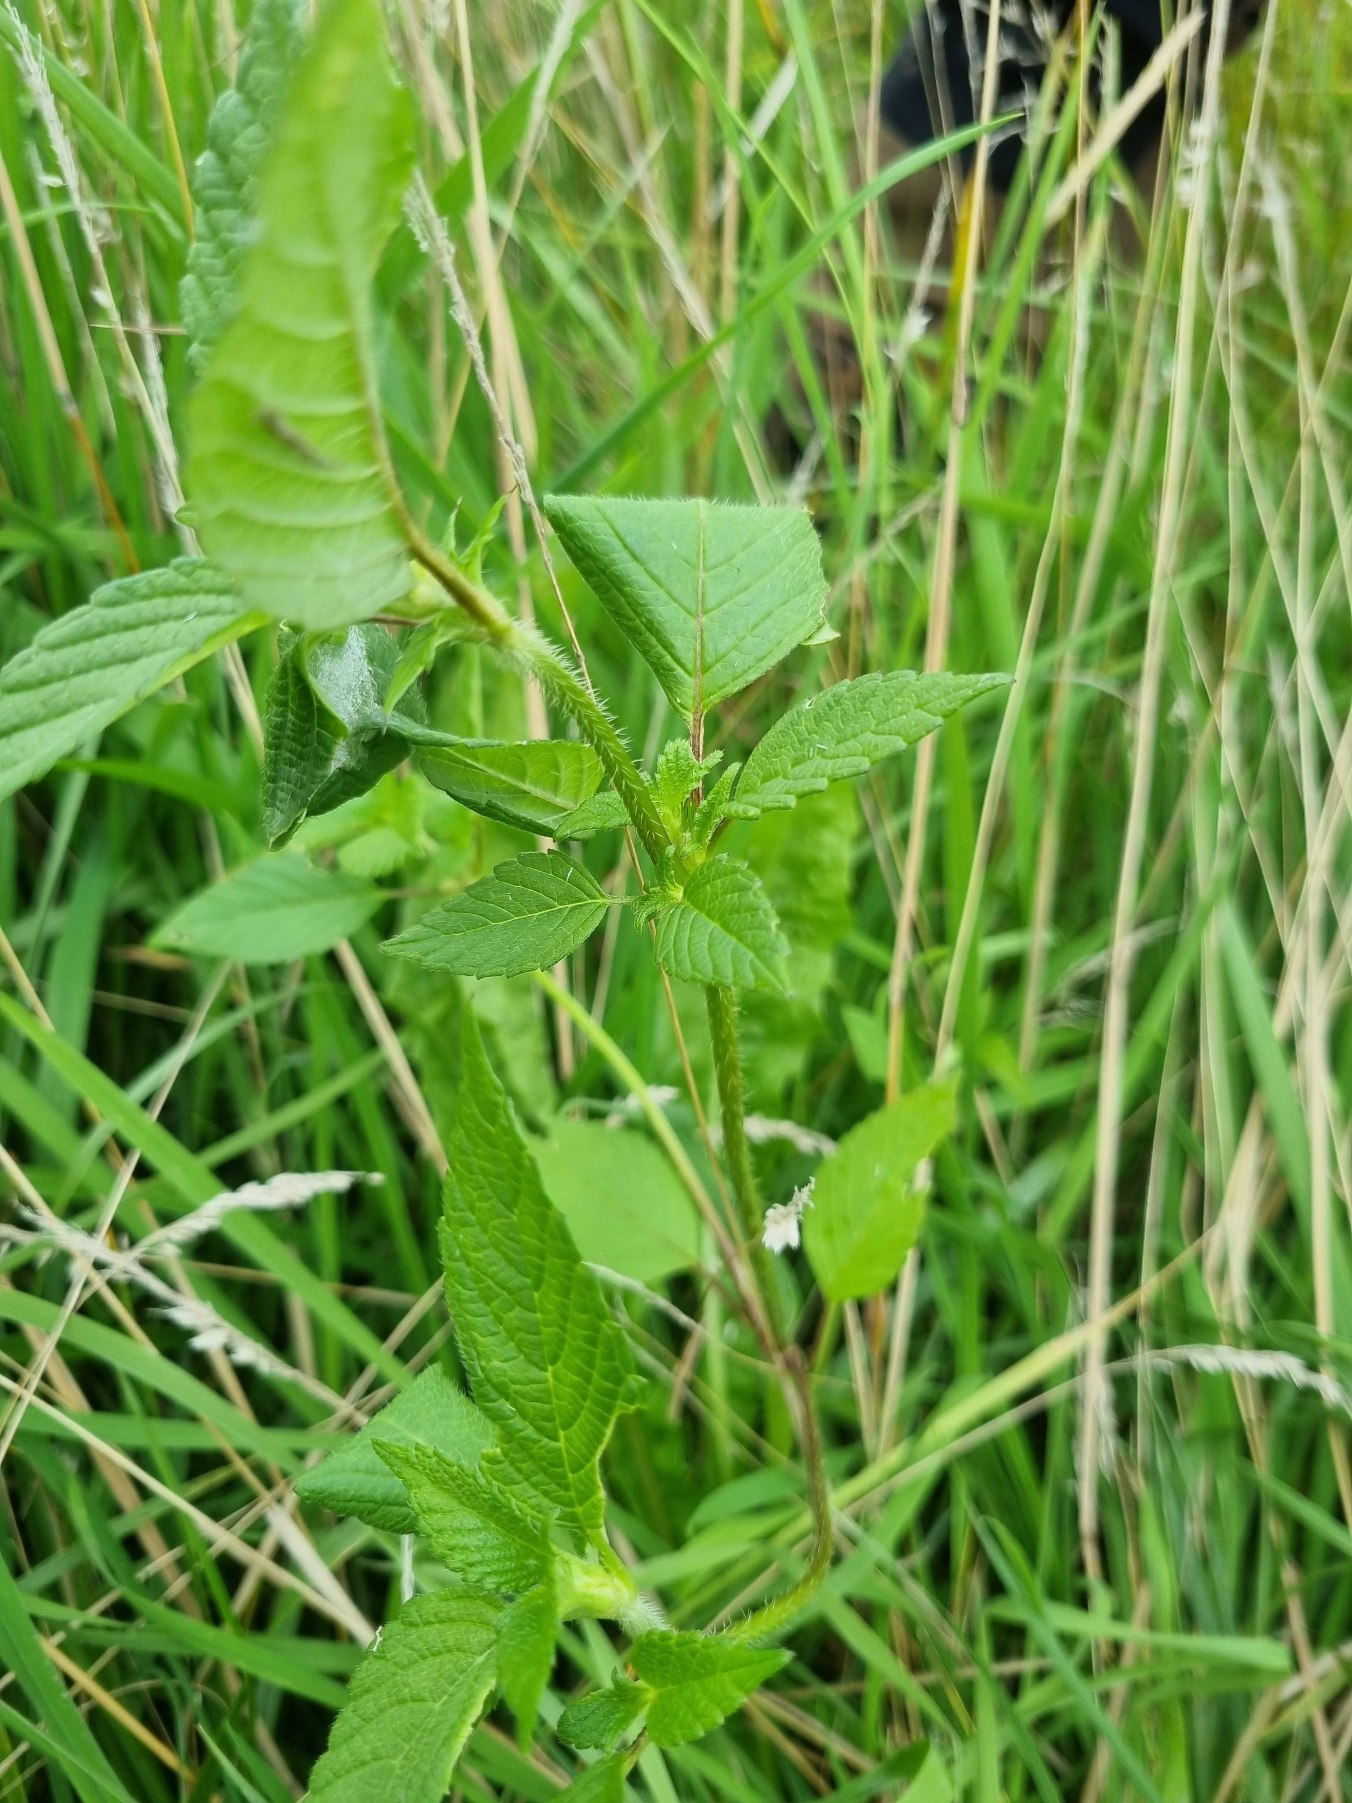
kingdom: Plantae
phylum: Tracheophyta
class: Magnoliopsida
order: Lamiales
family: Lamiaceae
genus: Galeopsis
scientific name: Galeopsis
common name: Hanekroslægten
